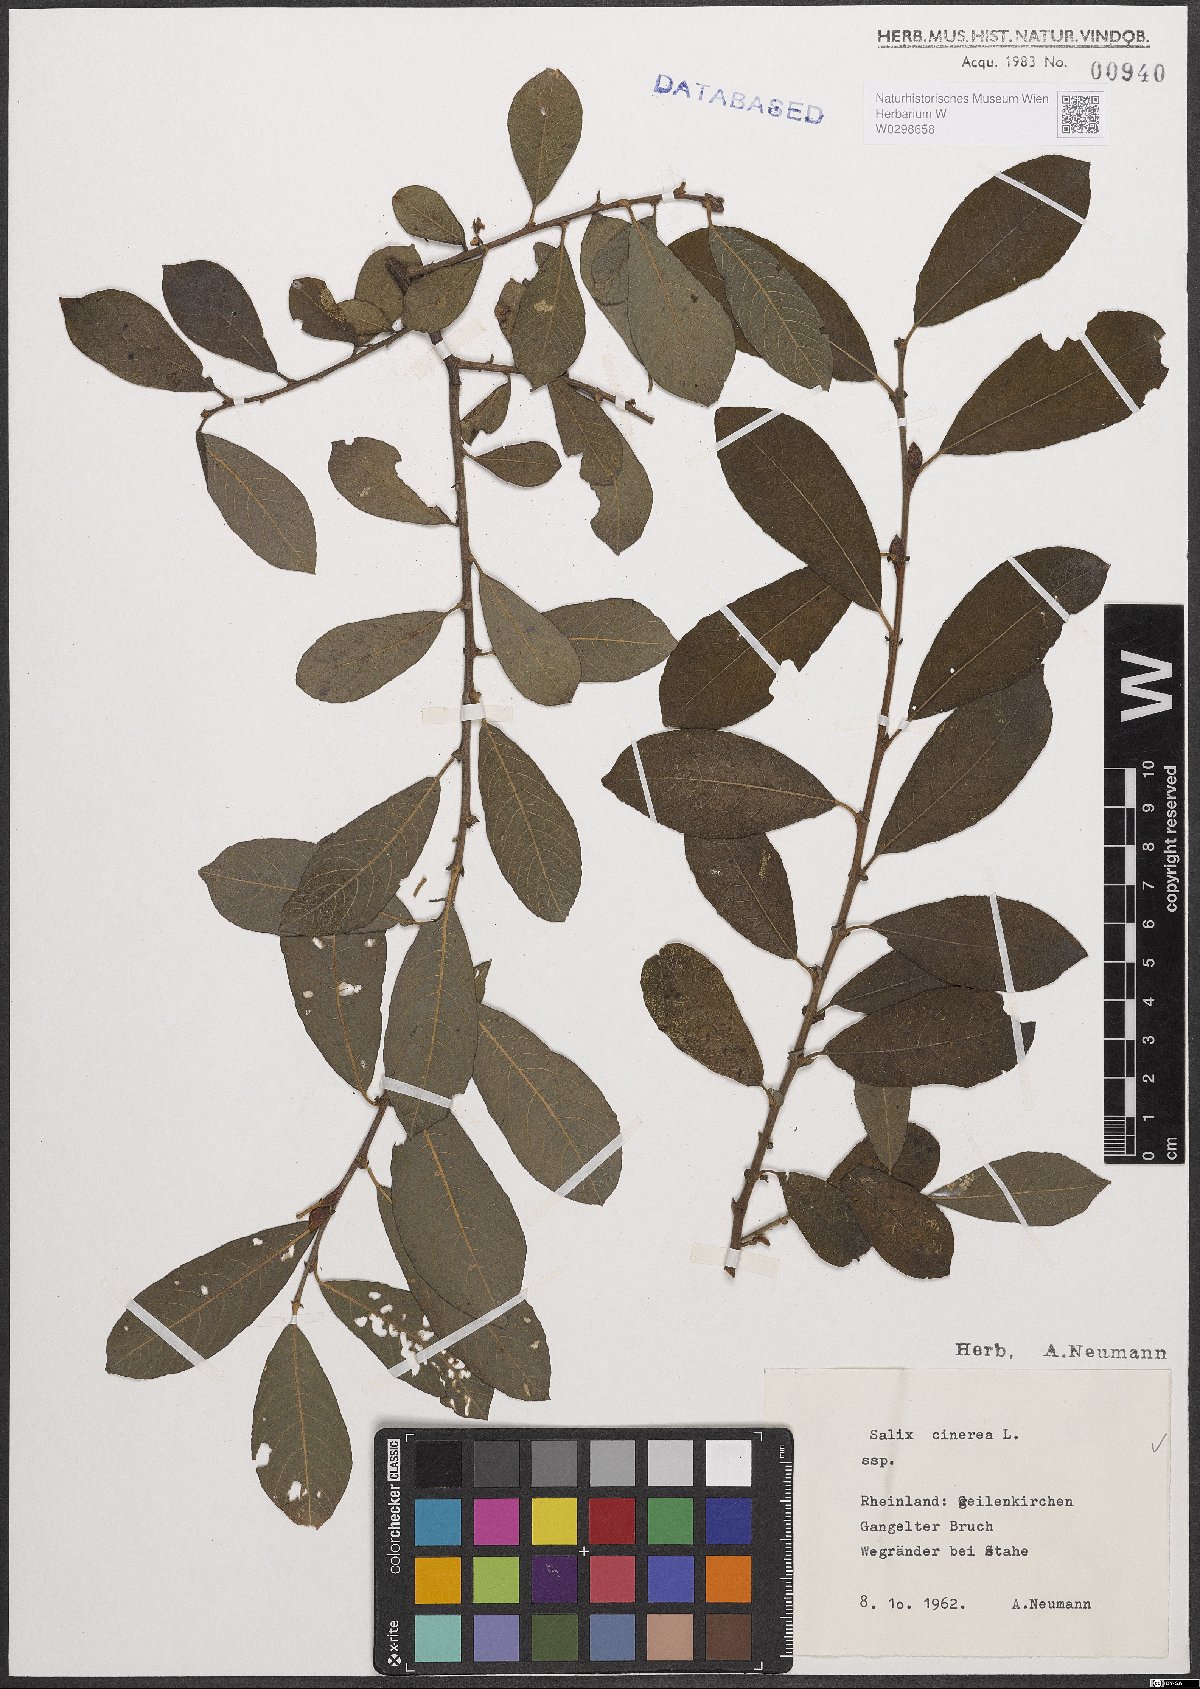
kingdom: Plantae
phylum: Tracheophyta
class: Magnoliopsida
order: Malpighiales
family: Salicaceae
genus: Salix
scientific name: Salix cinerea
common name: Common sallow
